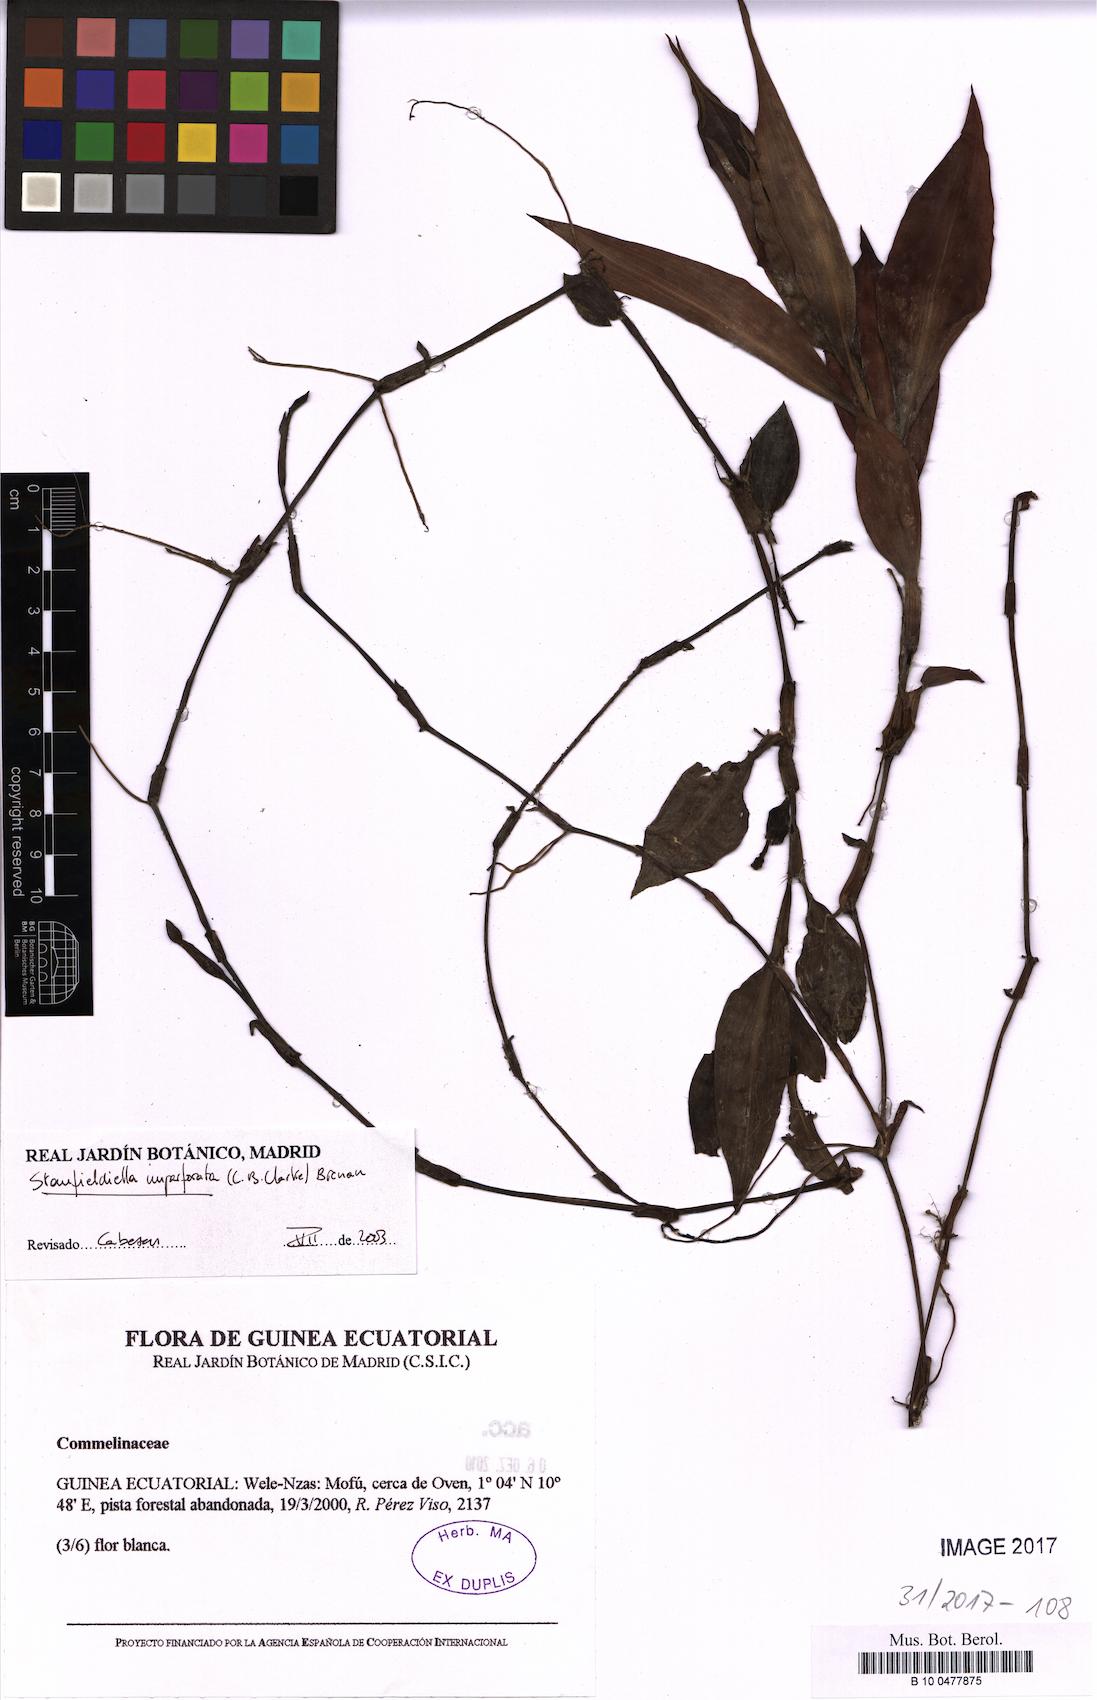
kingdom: Plantae
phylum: Tracheophyta
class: Liliopsida
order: Commelinales
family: Commelinaceae
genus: Stanfieldiella
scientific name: Stanfieldiella imperforata
